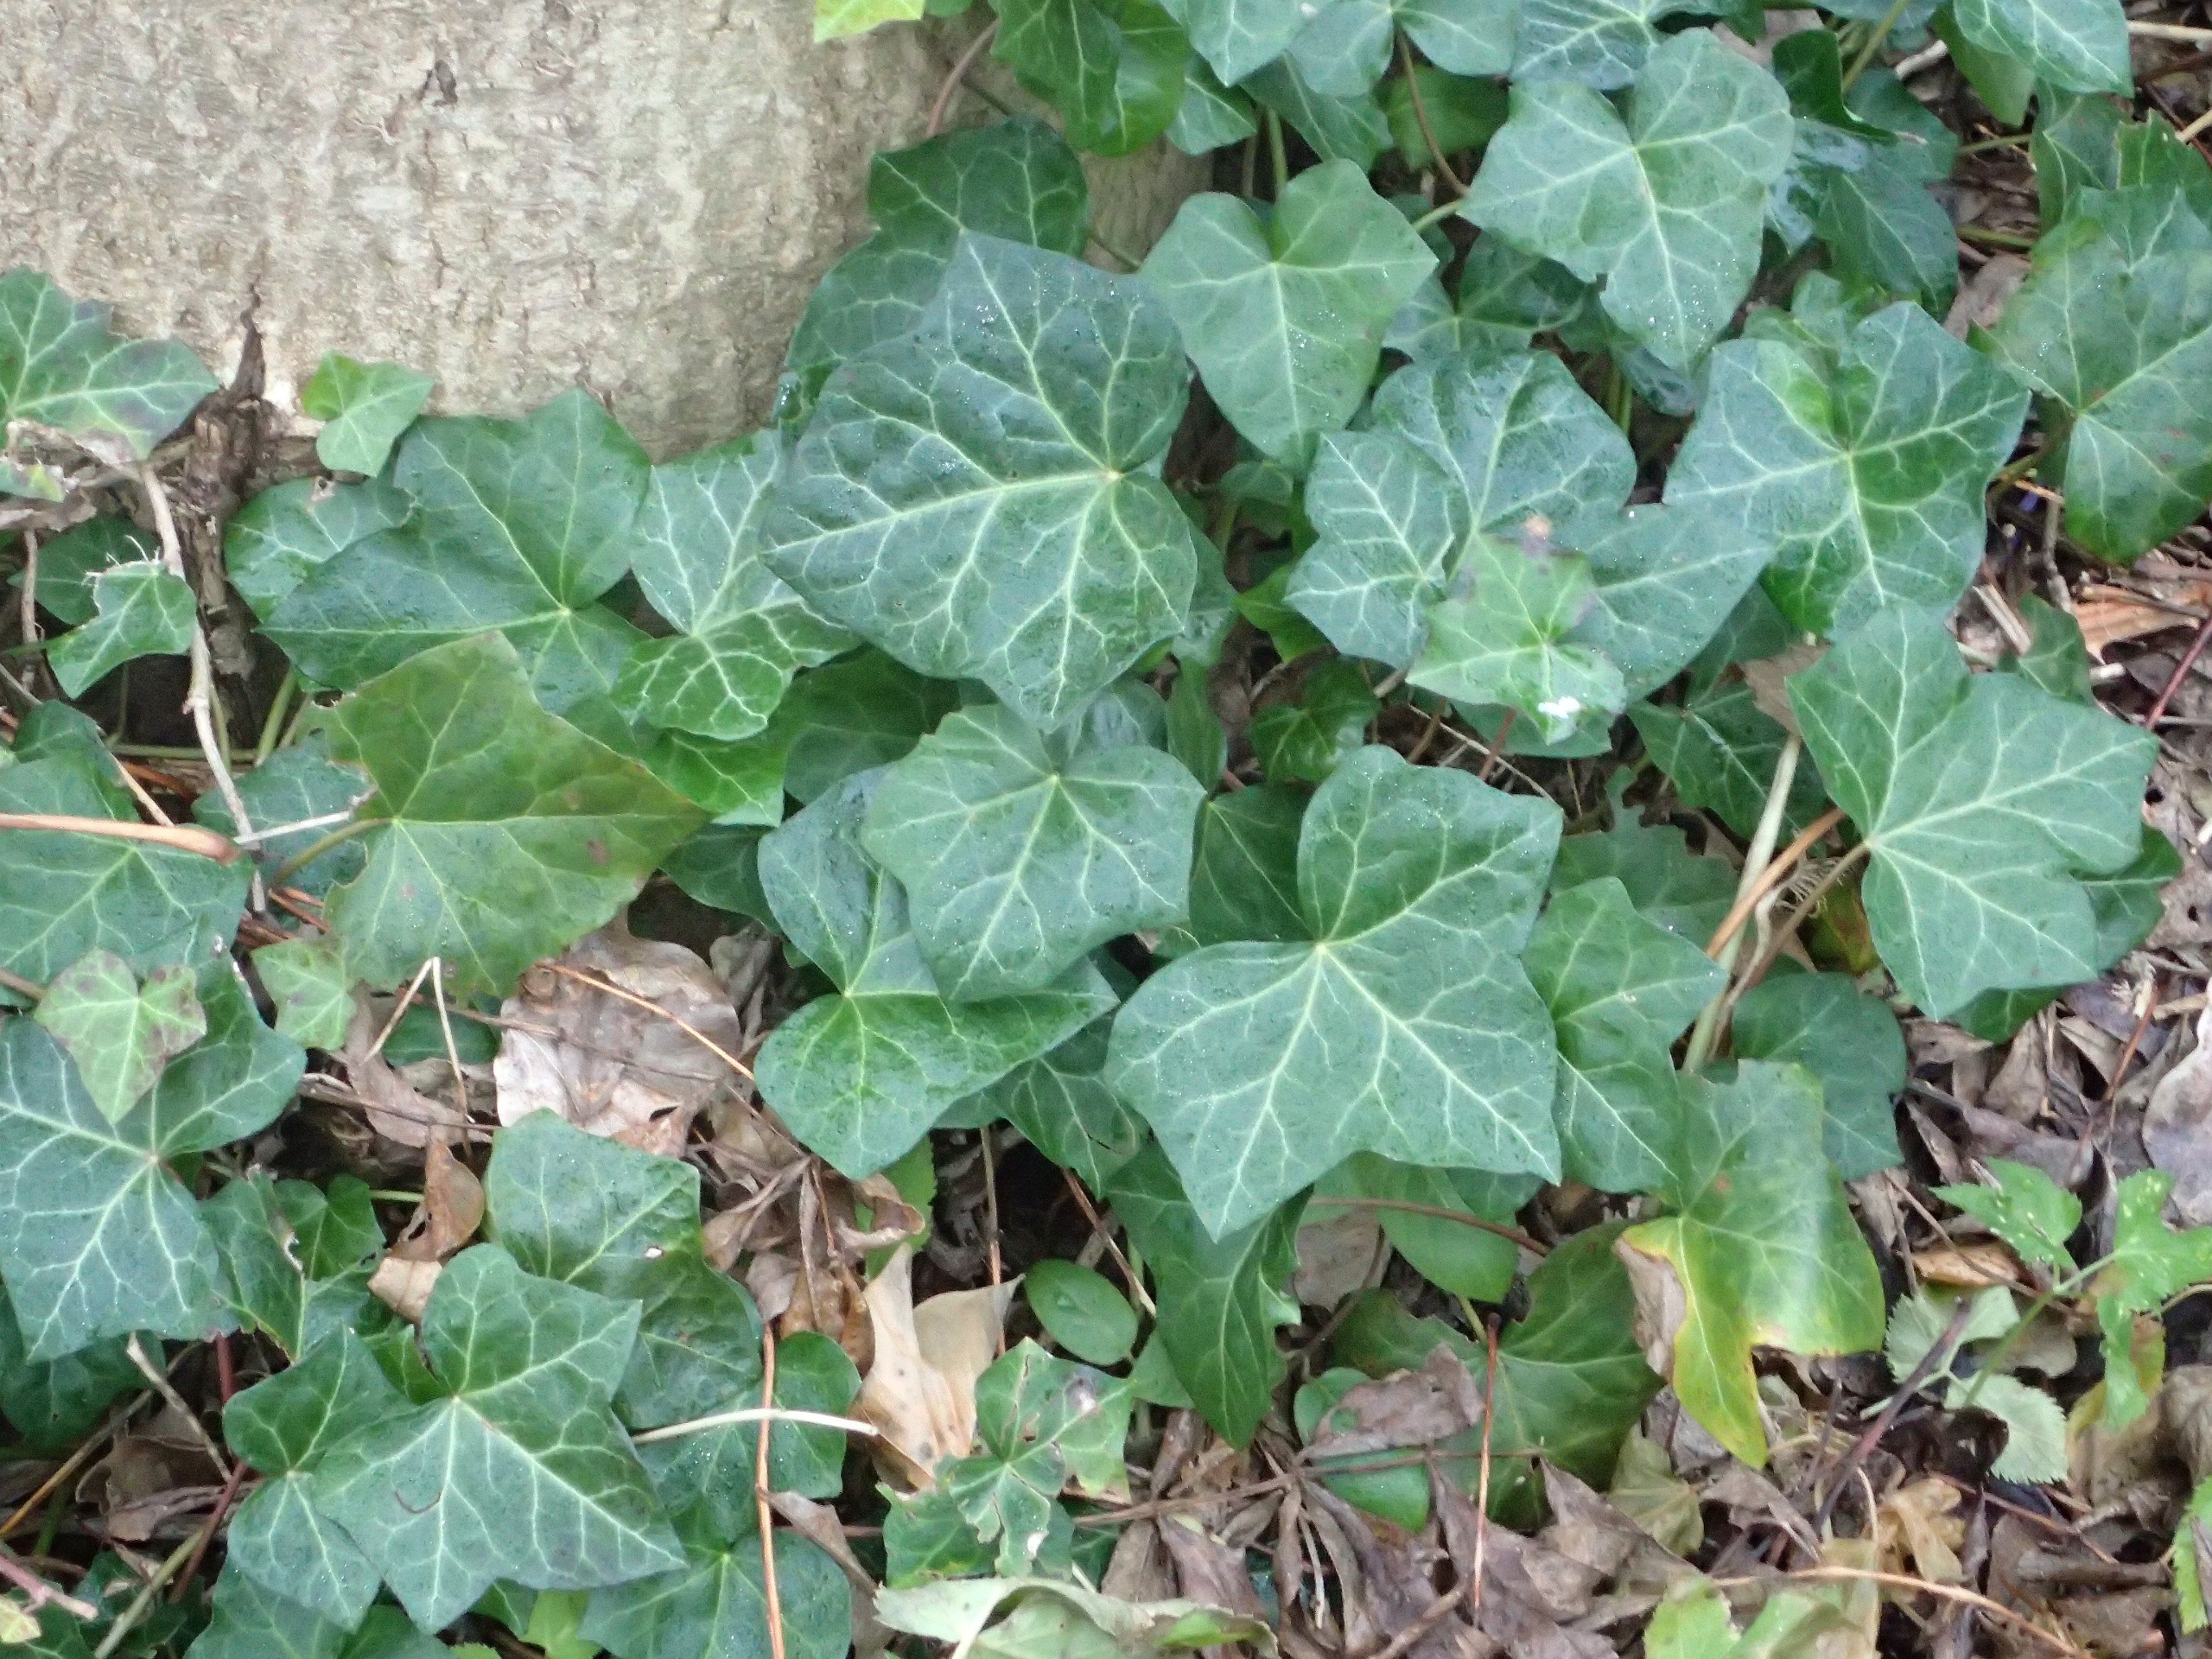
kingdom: Plantae
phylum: Tracheophyta
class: Magnoliopsida
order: Apiales
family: Araliaceae
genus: Hedera
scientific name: Hedera hibernica
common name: Irsk vedbend
